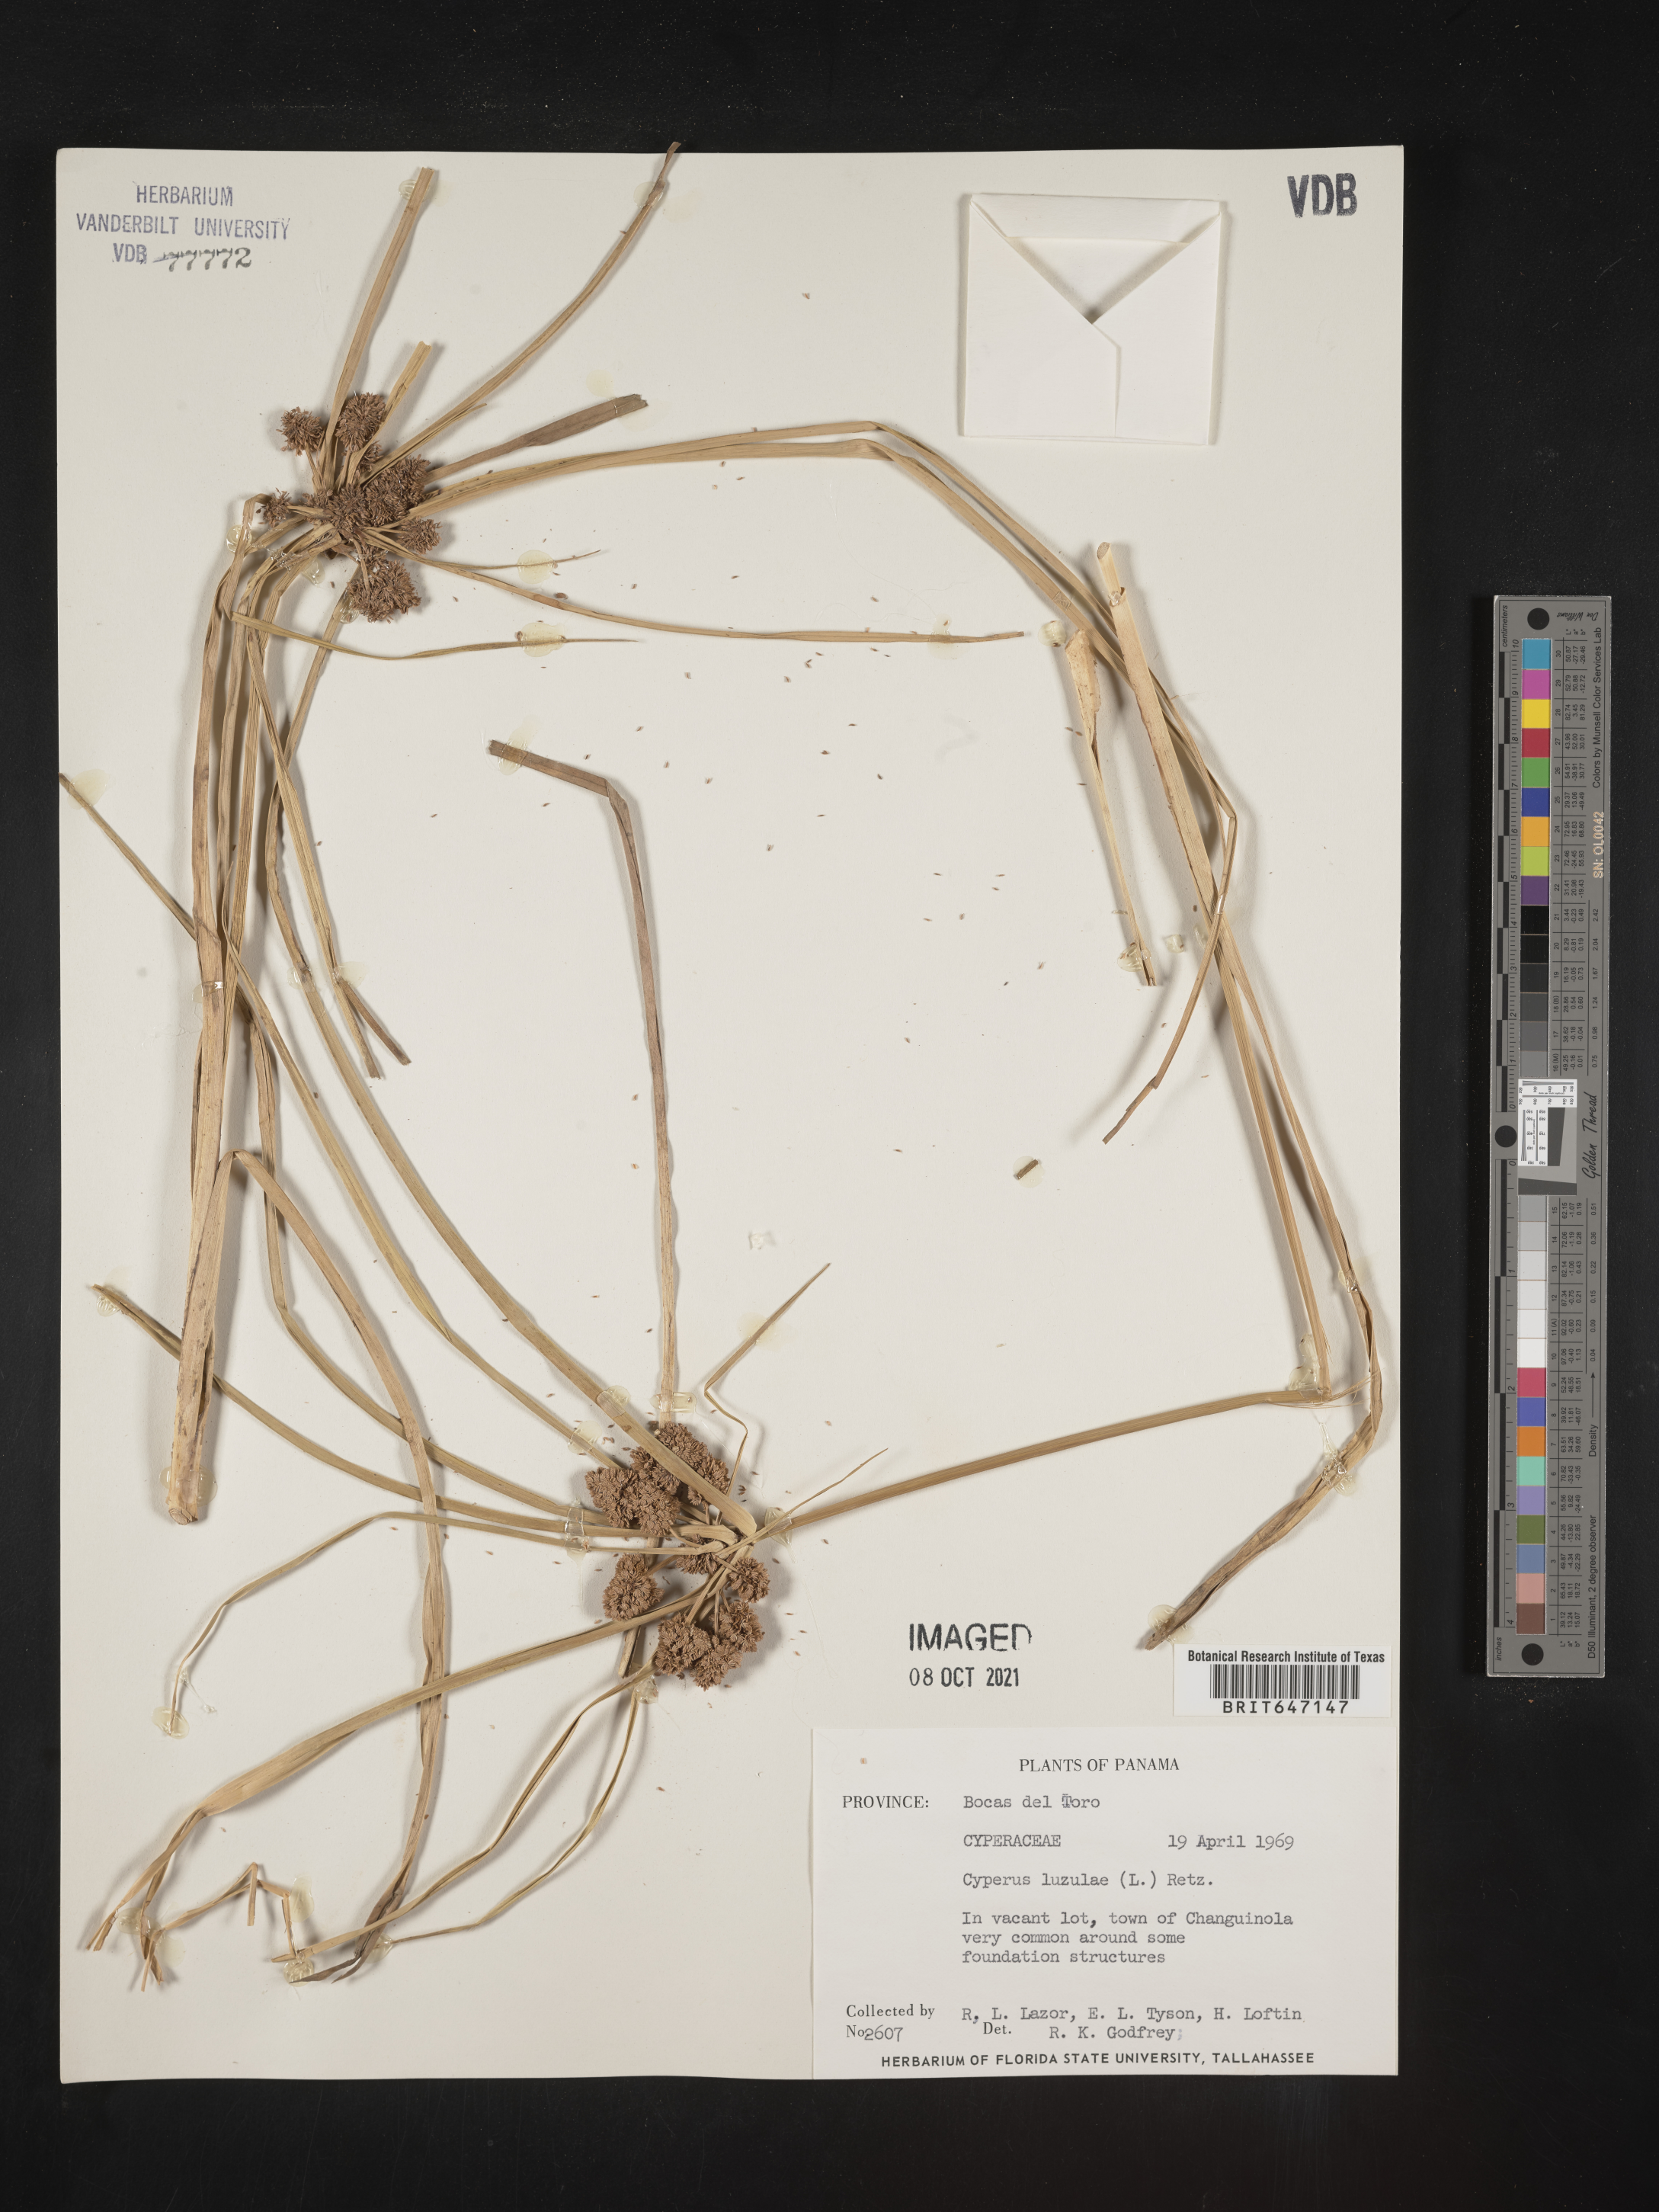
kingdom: Plantae
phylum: Tracheophyta
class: Liliopsida
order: Poales
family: Cyperaceae
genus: Cyperus
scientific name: Cyperus luzulae
